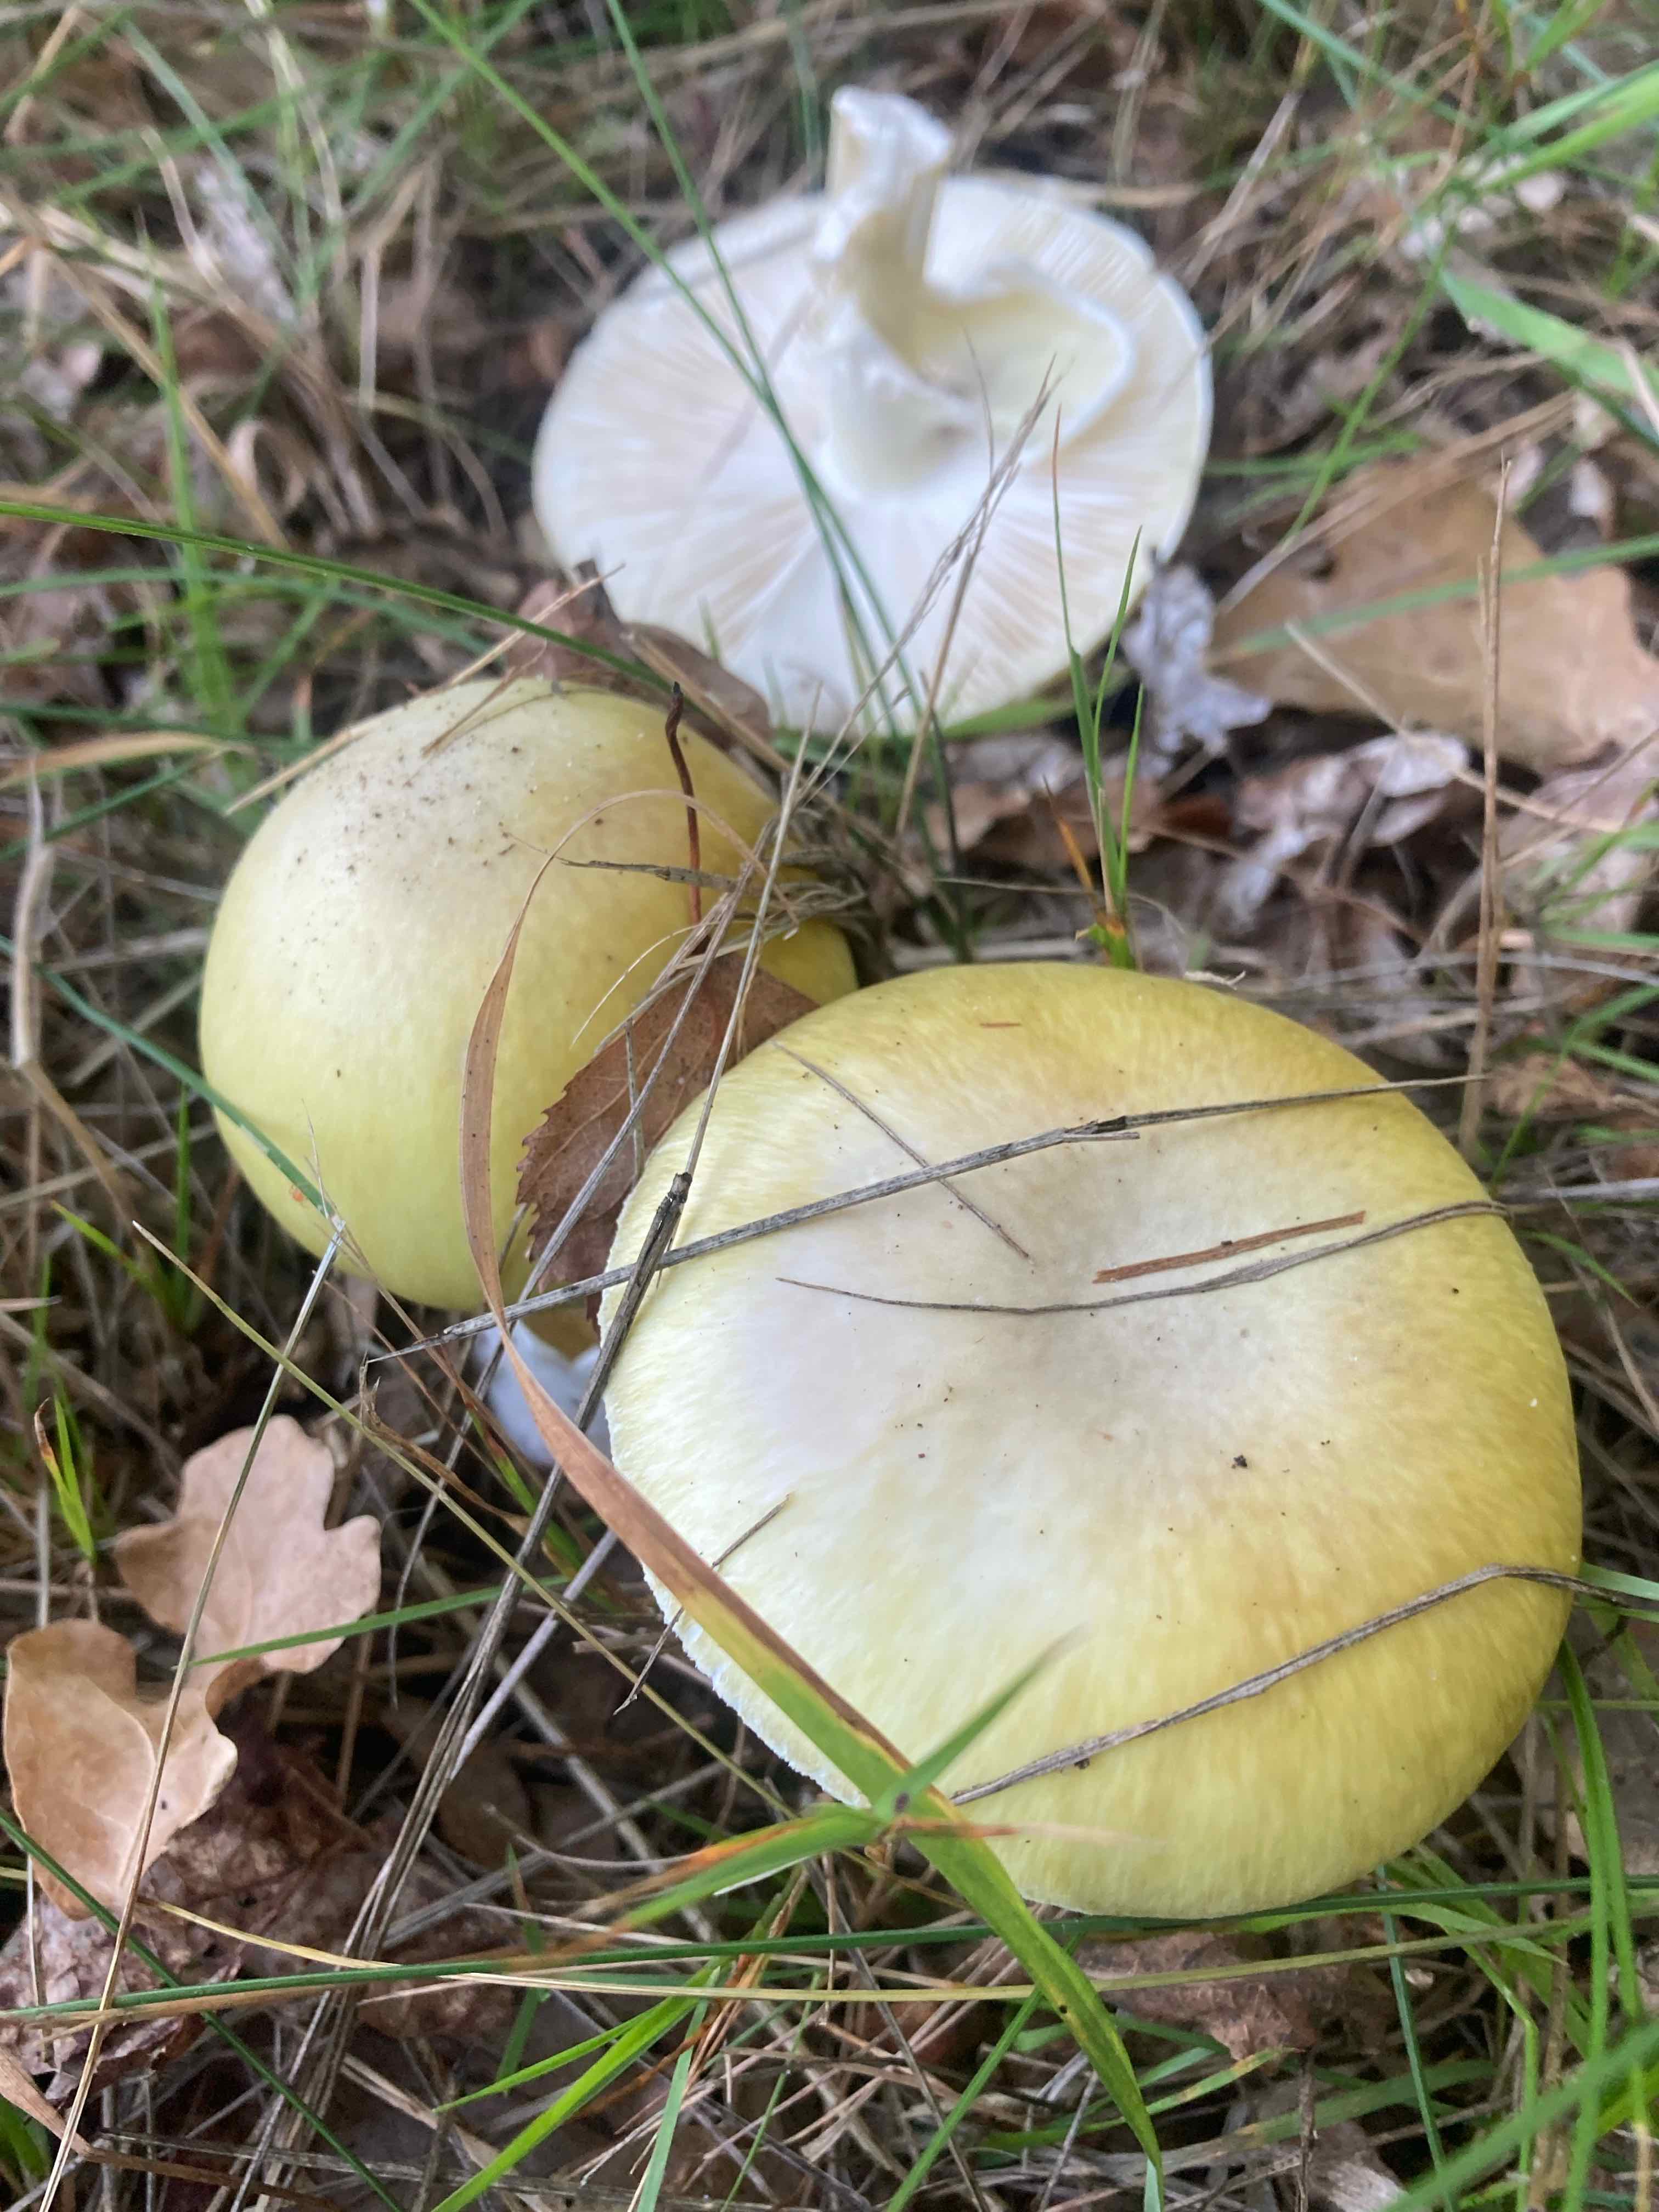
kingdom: Fungi
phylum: Basidiomycota
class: Agaricomycetes
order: Agaricales
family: Amanitaceae
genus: Amanita
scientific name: Amanita phalloides
